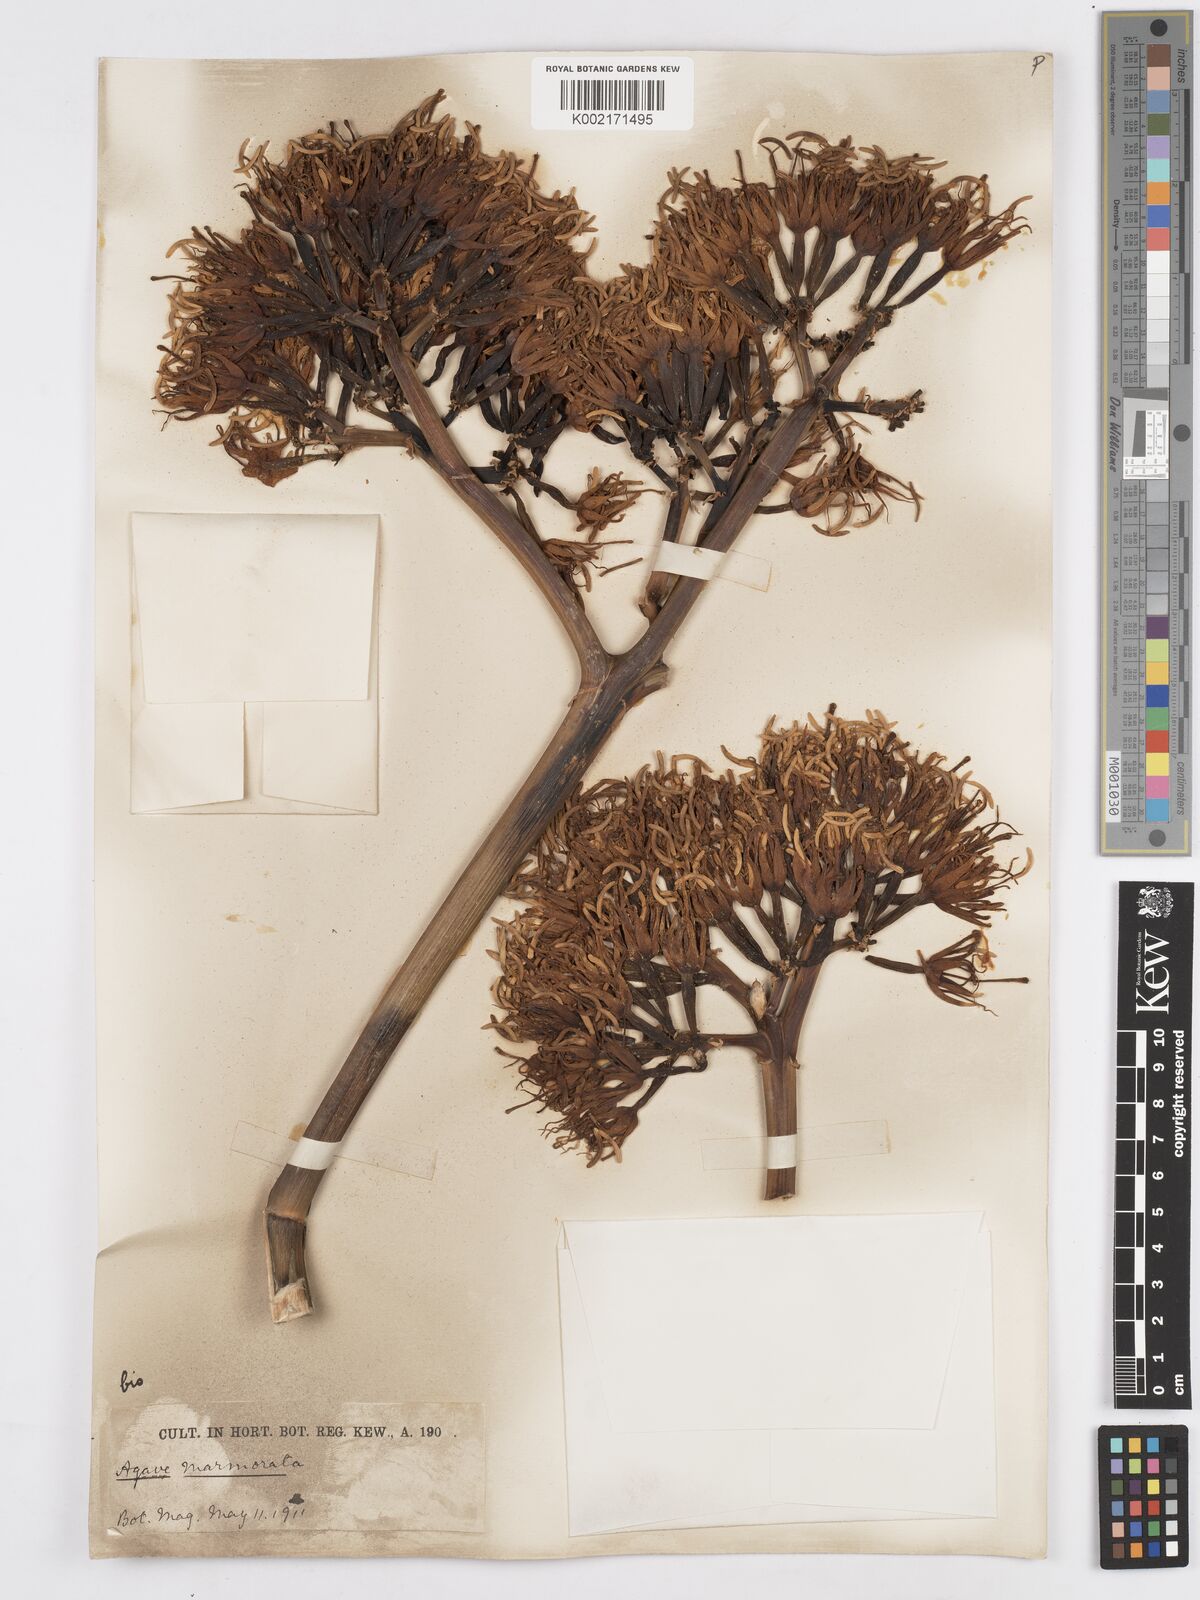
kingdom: Plantae
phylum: Tracheophyta
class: Liliopsida
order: Asparagales
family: Asparagaceae
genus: Agave
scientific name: Agave marmorata
